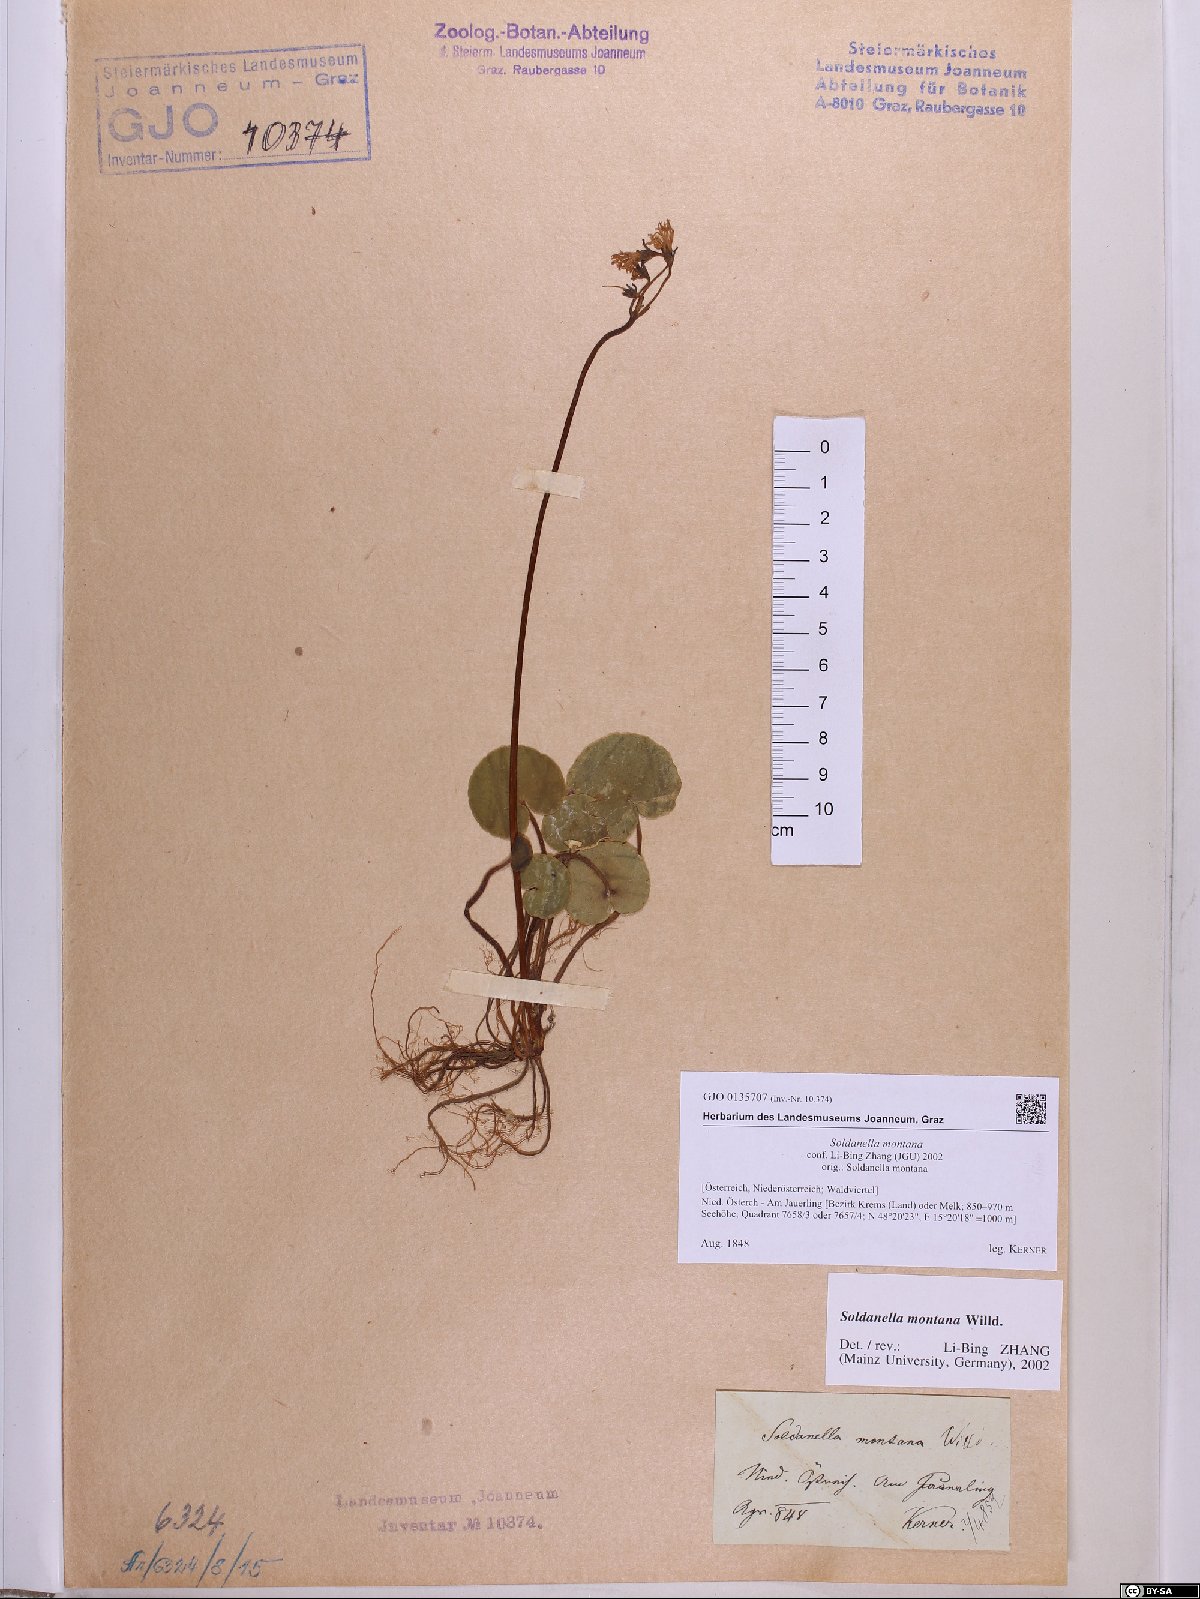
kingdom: Plantae
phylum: Tracheophyta
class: Magnoliopsida
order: Ericales
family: Primulaceae
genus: Soldanella
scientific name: Soldanella montana
